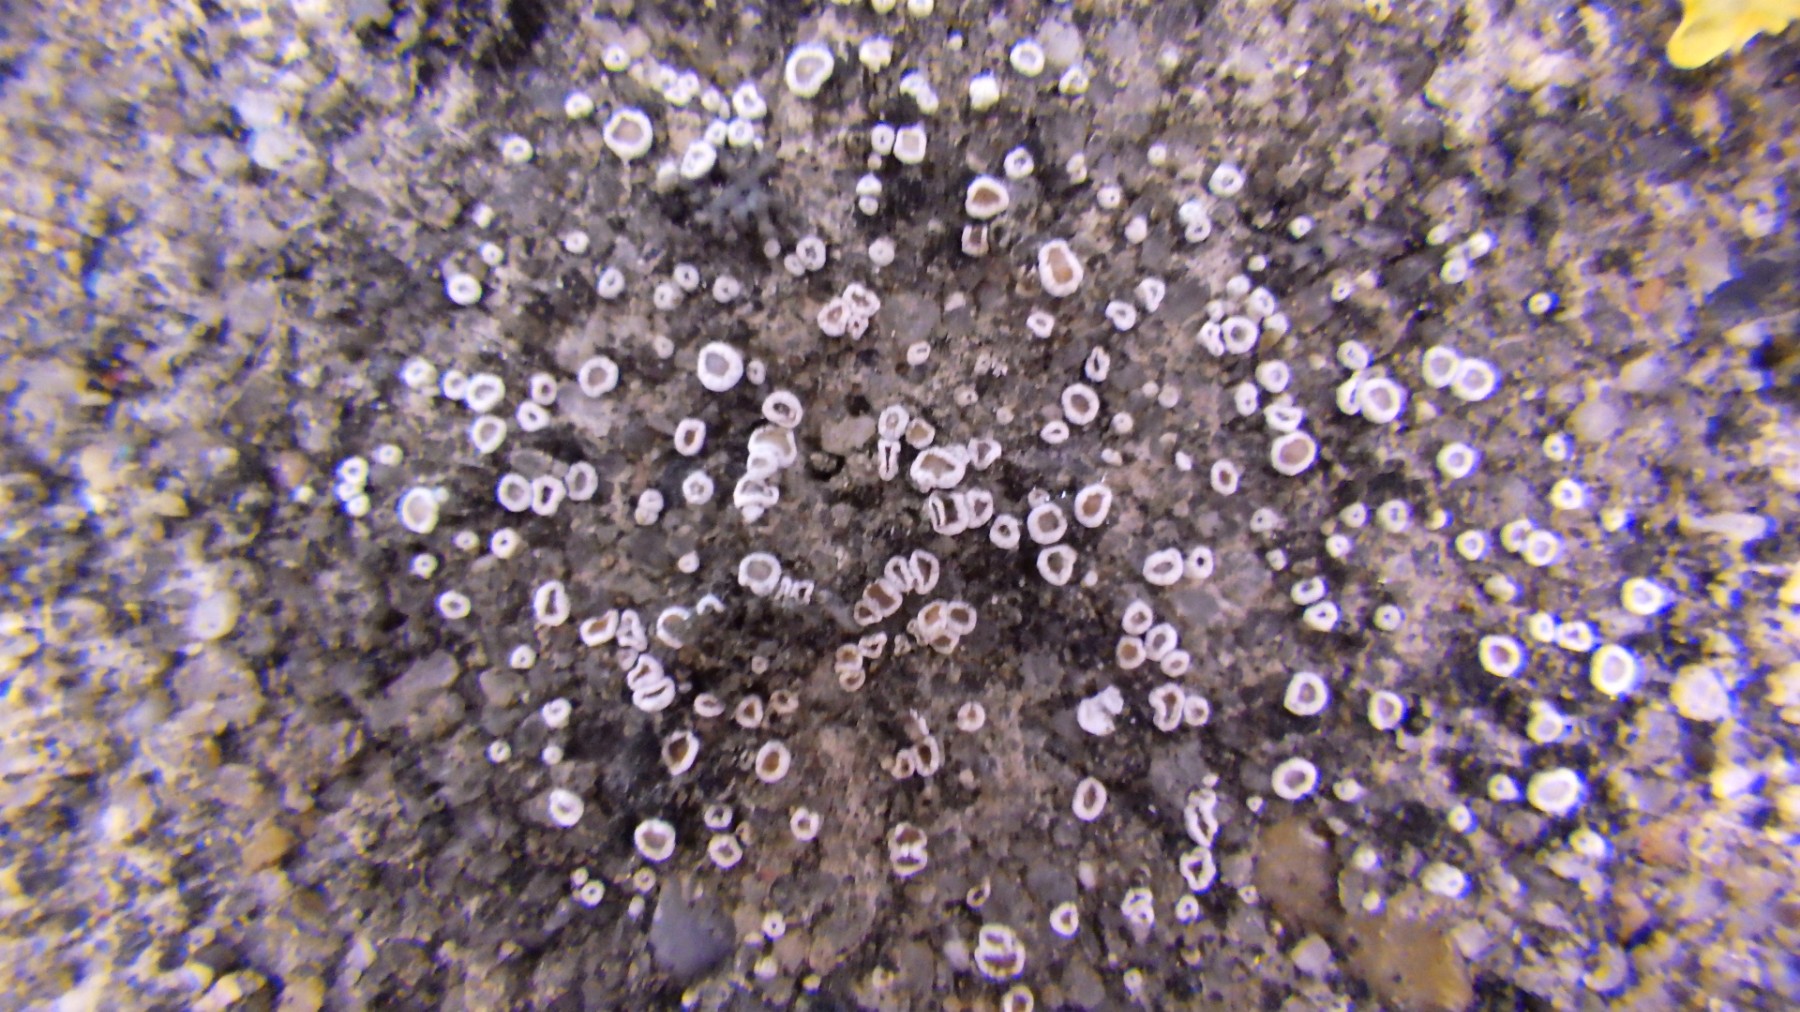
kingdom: Fungi
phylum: Ascomycota
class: Lecanoromycetes
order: Lecanorales
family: Lecanoraceae
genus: Polyozosia
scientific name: Polyozosia dispersa
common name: spredt kantskivelav
